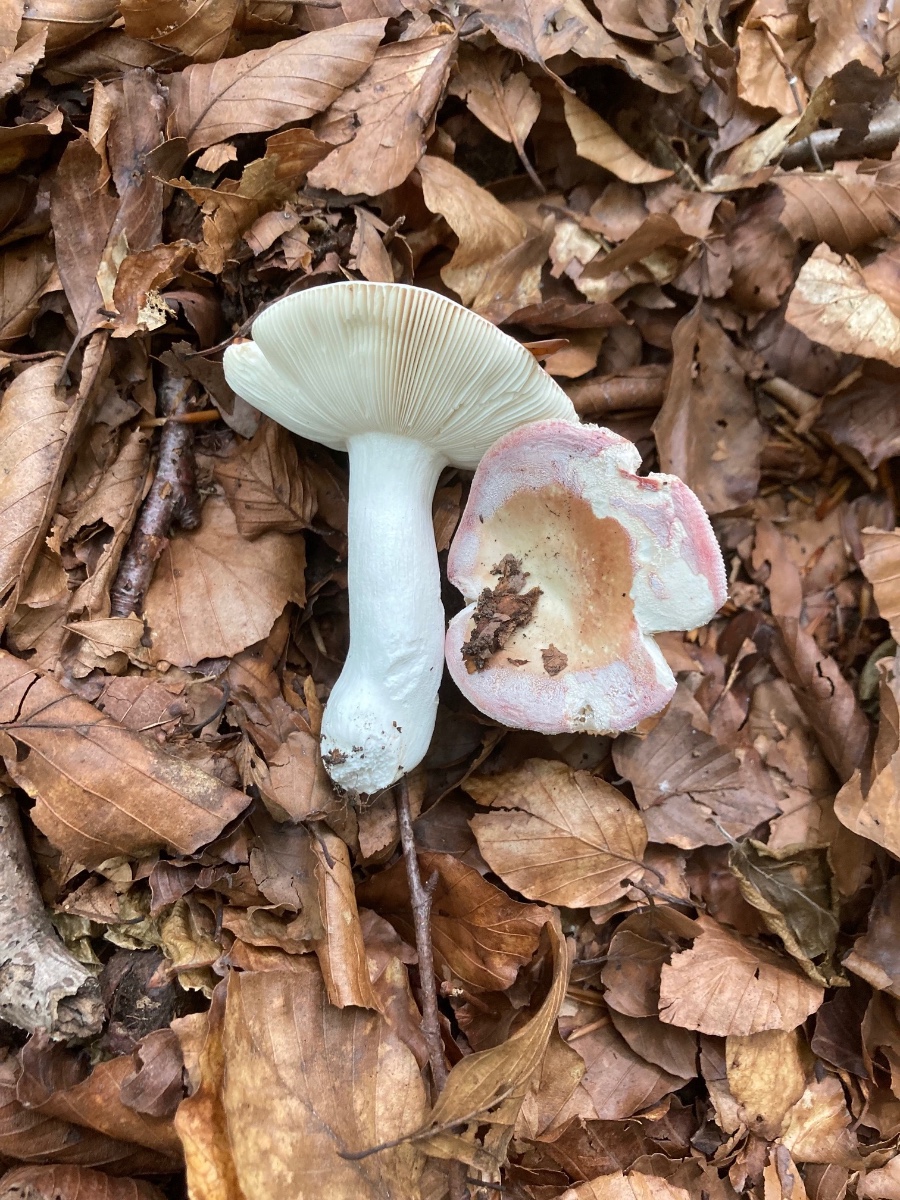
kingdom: Fungi
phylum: Basidiomycota
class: Agaricomycetes
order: Russulales
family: Russulaceae
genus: Russula
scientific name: Russula aurora
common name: rosa skørhat
